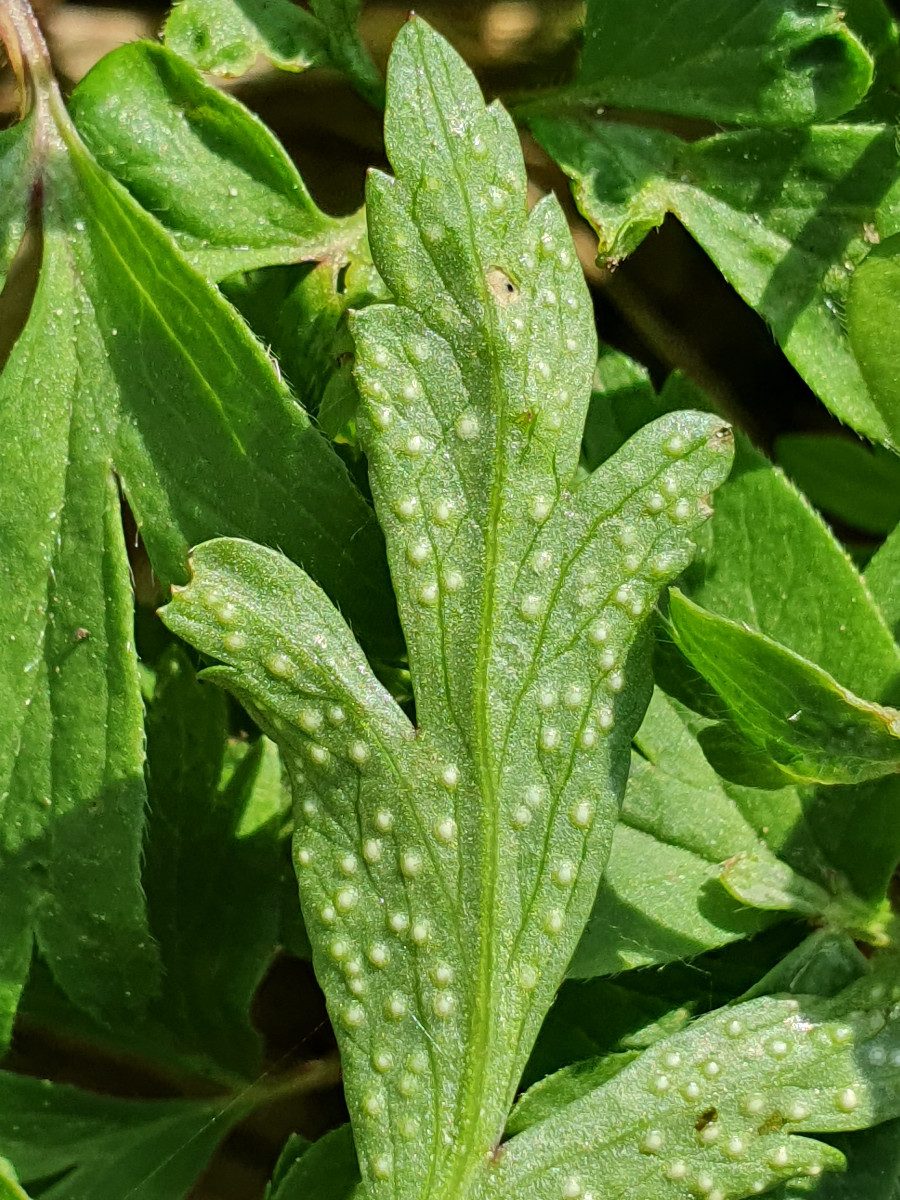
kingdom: Fungi
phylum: Basidiomycota
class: Pucciniomycetes
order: Pucciniales
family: Ochropsoraceae
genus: Ochropsora
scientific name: Ochropsora ariae
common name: anemone-okkerpletrust
